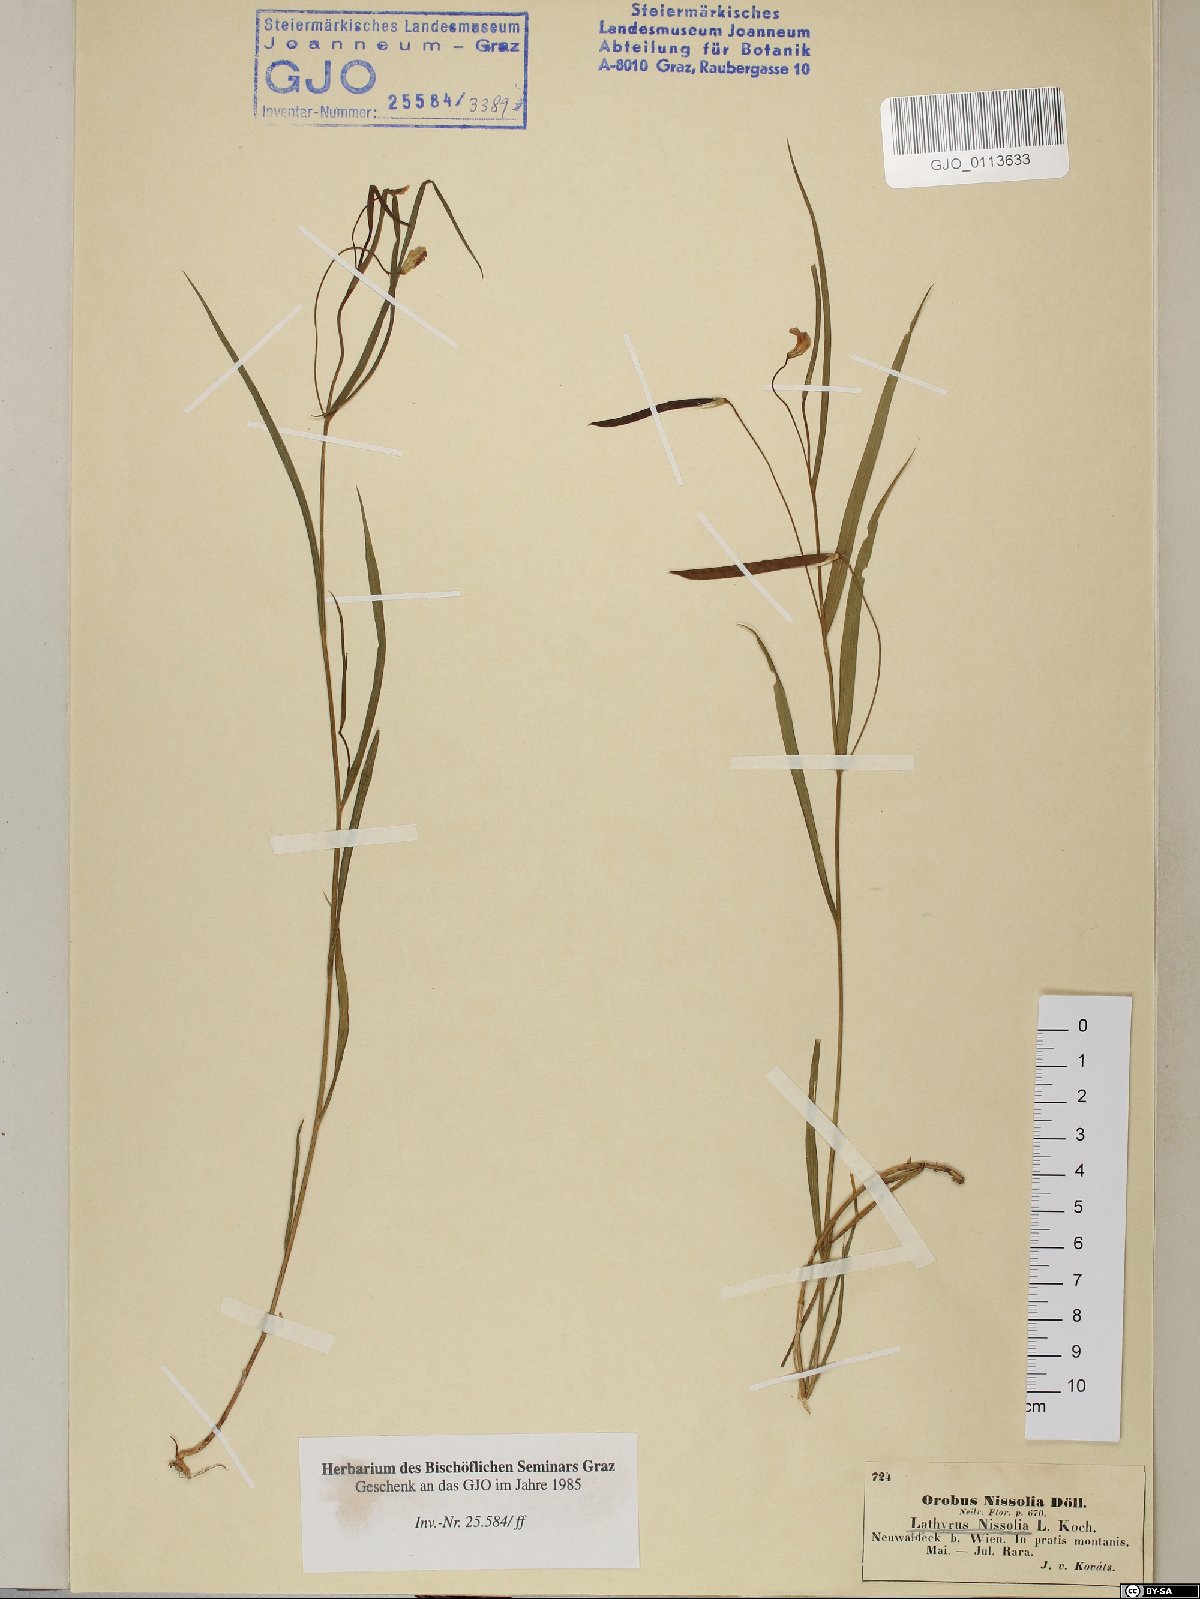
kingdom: Plantae
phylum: Tracheophyta
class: Magnoliopsida
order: Fabales
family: Fabaceae
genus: Lathyrus
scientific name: Lathyrus nissolia
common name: Grass vetchling
